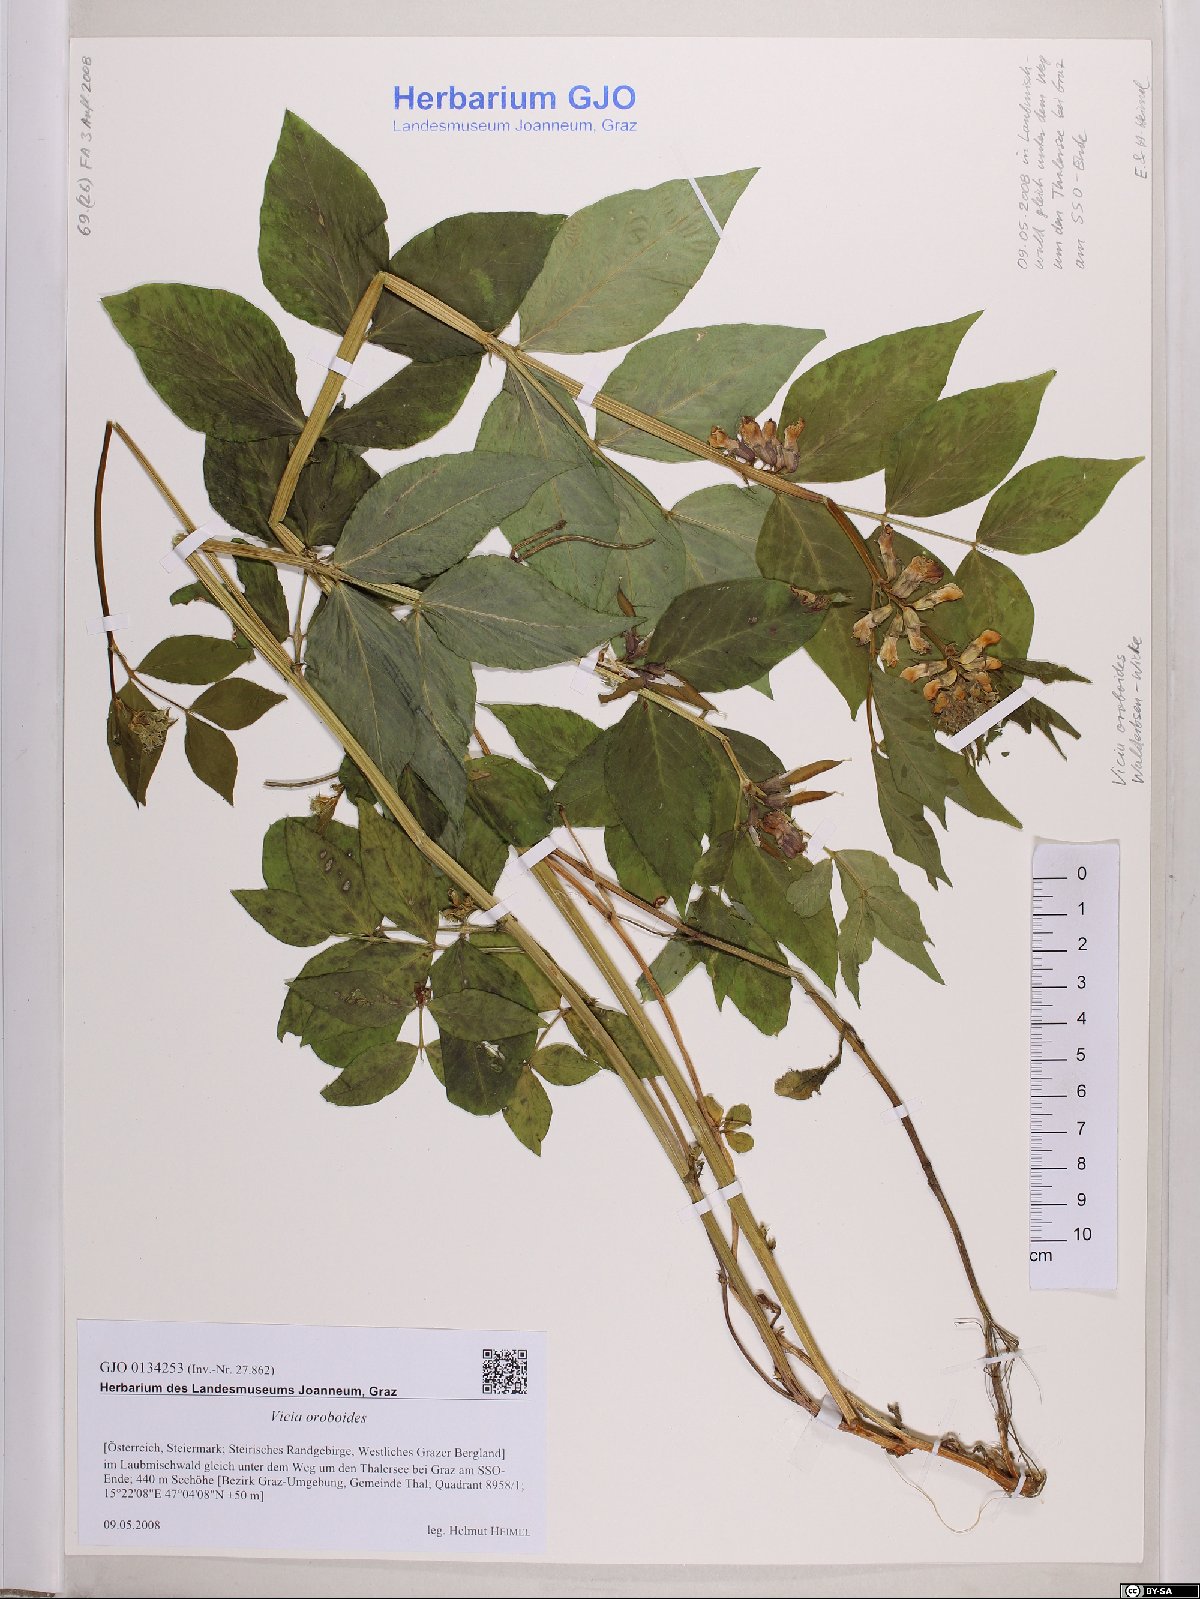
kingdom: Plantae
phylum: Tracheophyta
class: Magnoliopsida
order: Fabales
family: Fabaceae
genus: Vicia
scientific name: Vicia oroboides
